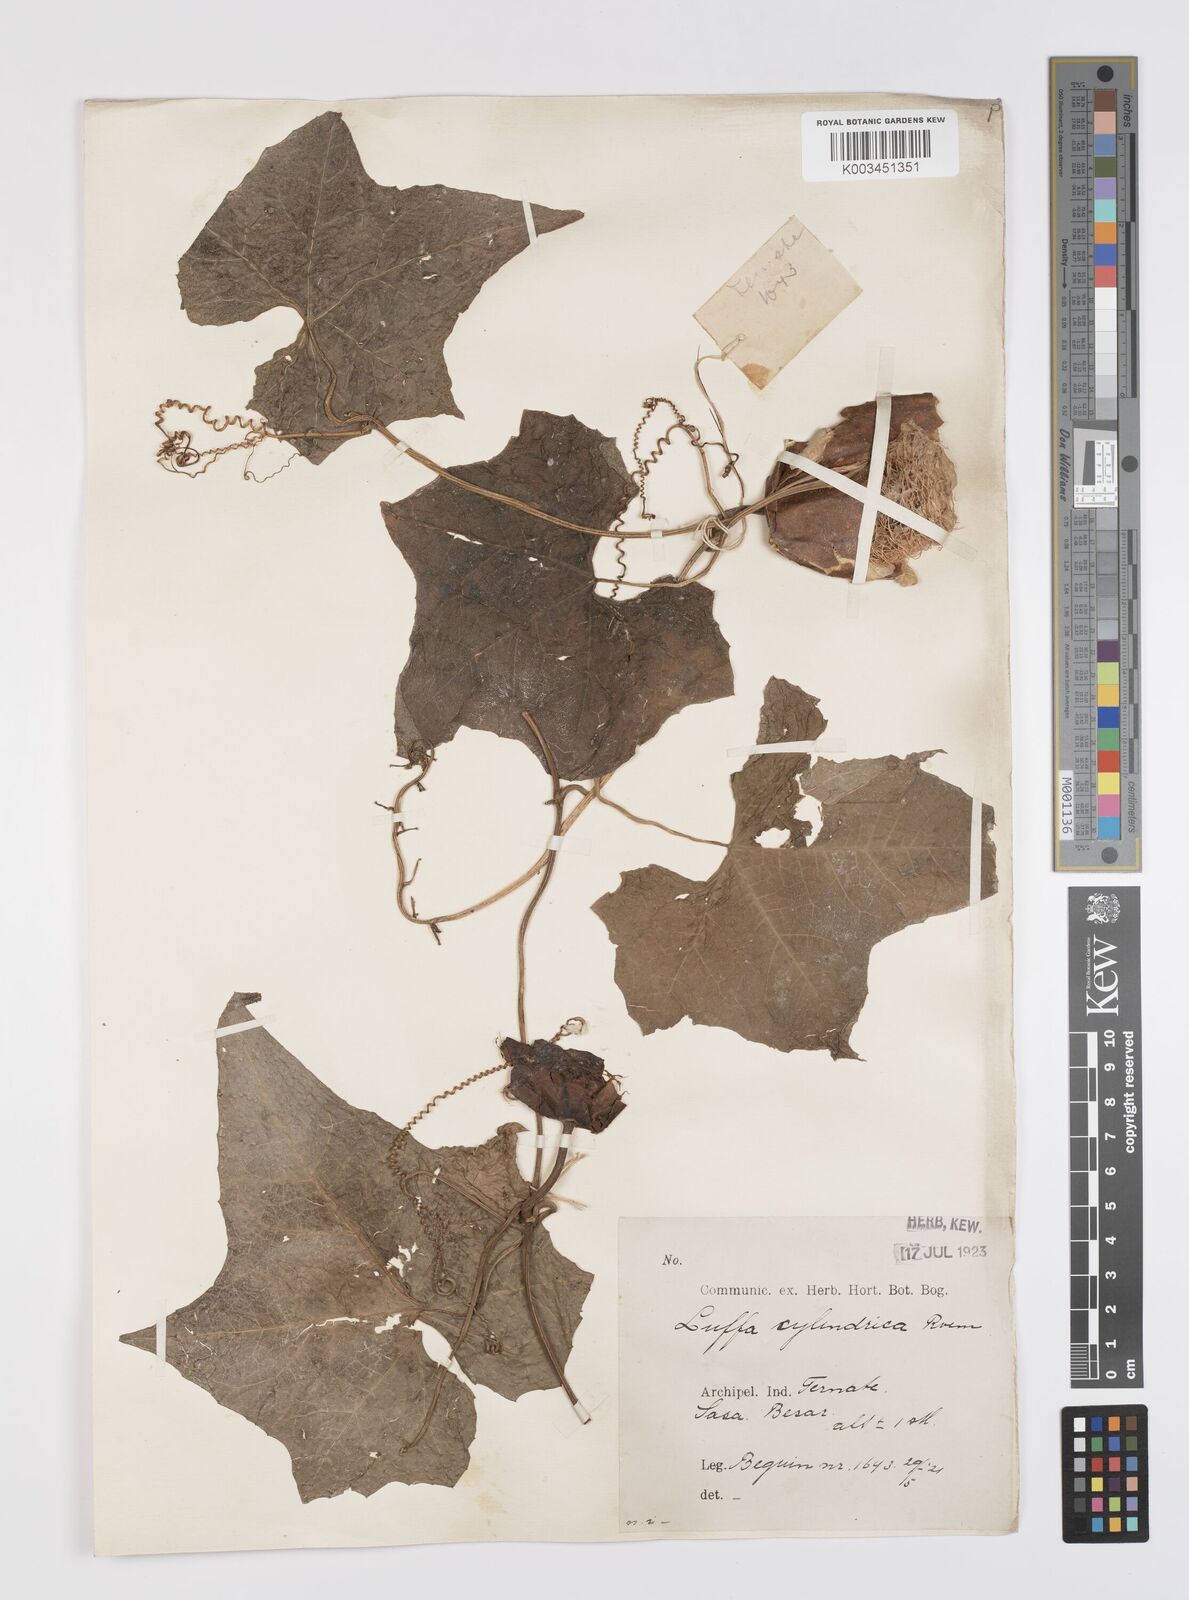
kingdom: Plantae
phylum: Tracheophyta
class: Magnoliopsida
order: Cucurbitales
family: Cucurbitaceae
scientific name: Cucurbitaceae
